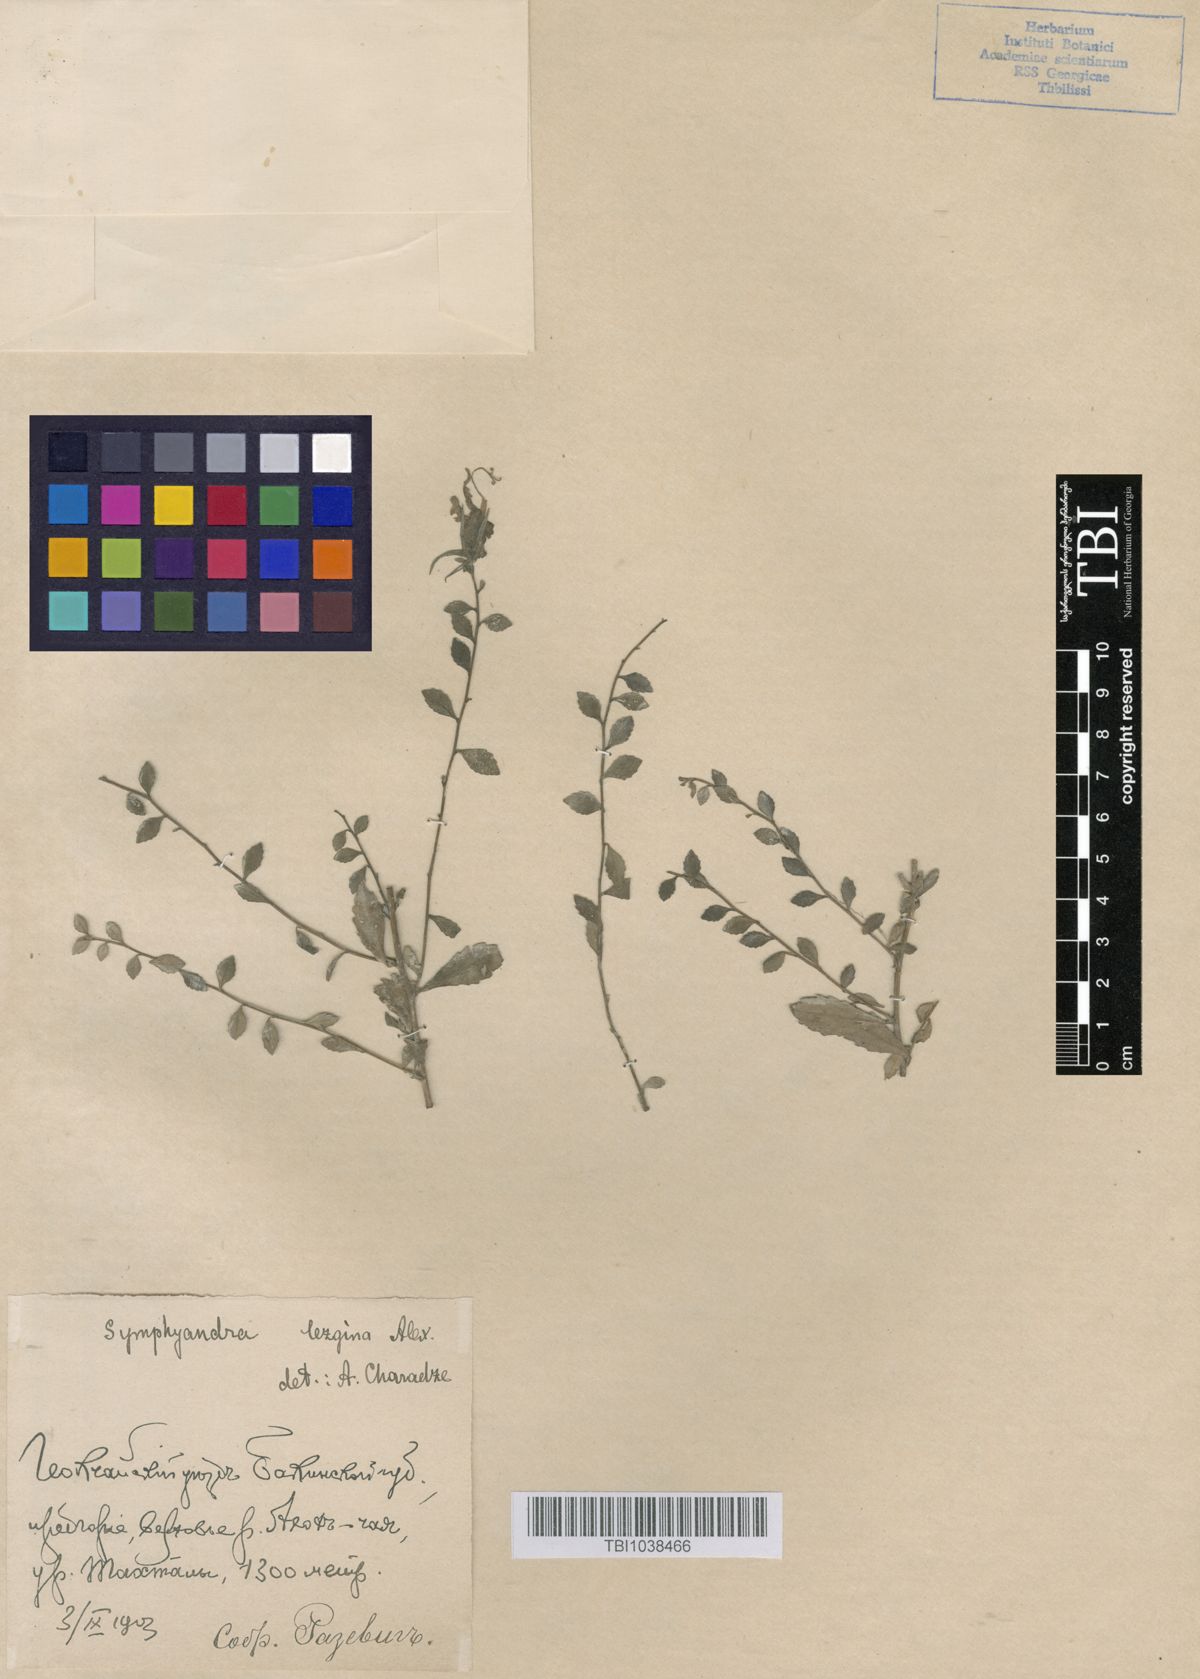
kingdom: Plantae
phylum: Tracheophyta
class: Magnoliopsida
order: Asterales
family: Campanulaceae
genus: Campanula
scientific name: Campanula lezgina
